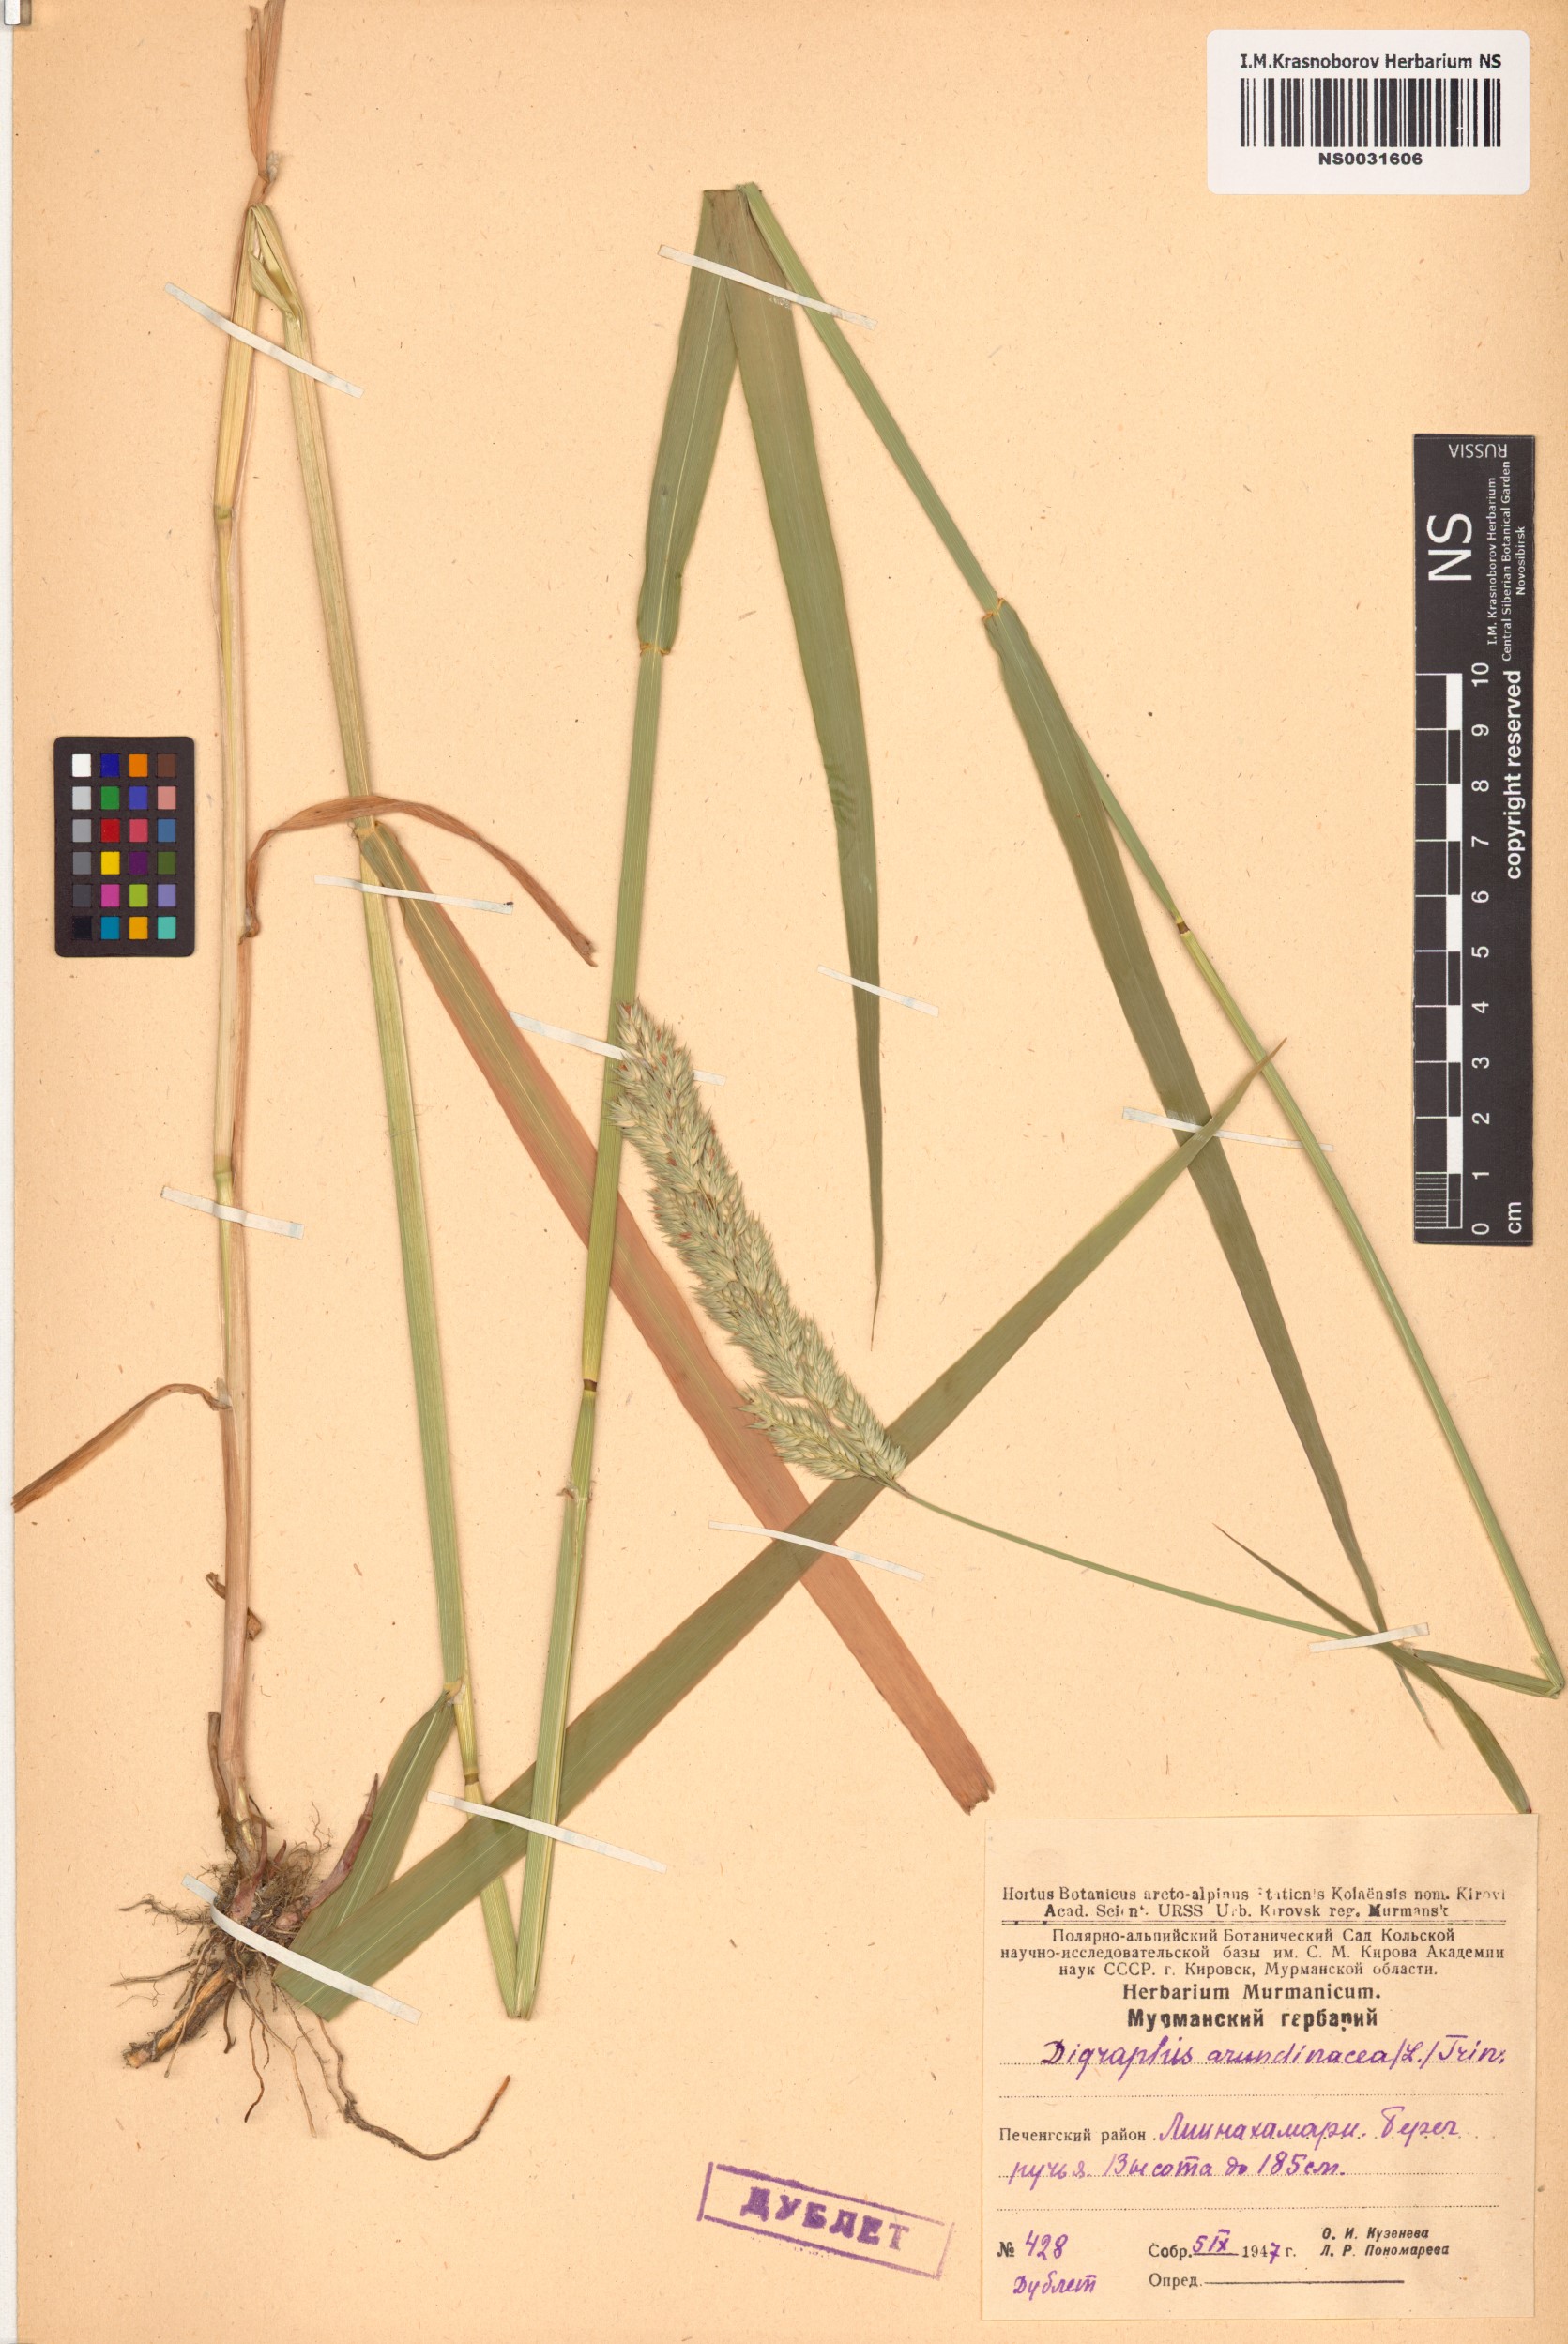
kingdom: Plantae
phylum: Tracheophyta
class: Liliopsida
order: Poales
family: Poaceae
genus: Phalaris
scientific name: Phalaris arundinacea
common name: Reed canary-grass
